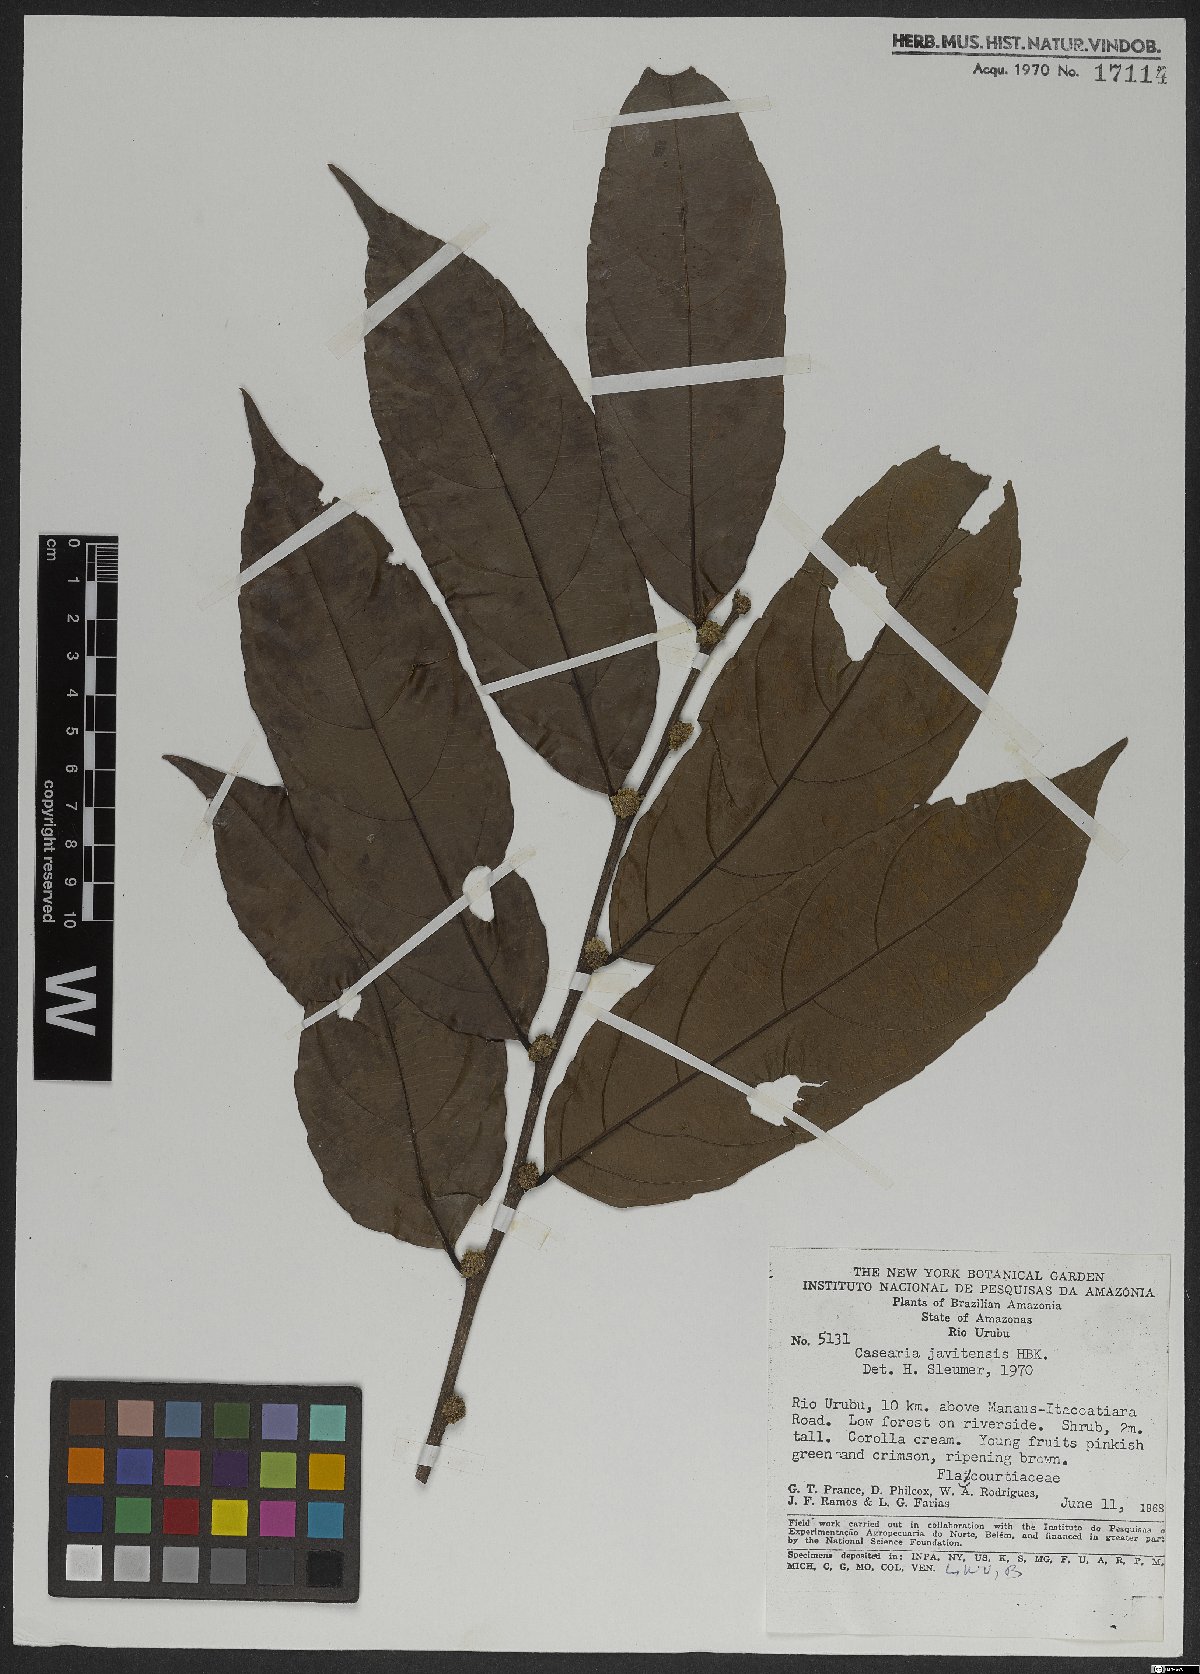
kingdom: Plantae
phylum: Tracheophyta
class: Magnoliopsida
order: Malpighiales
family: Salicaceae
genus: Piparea
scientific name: Piparea multiflora
